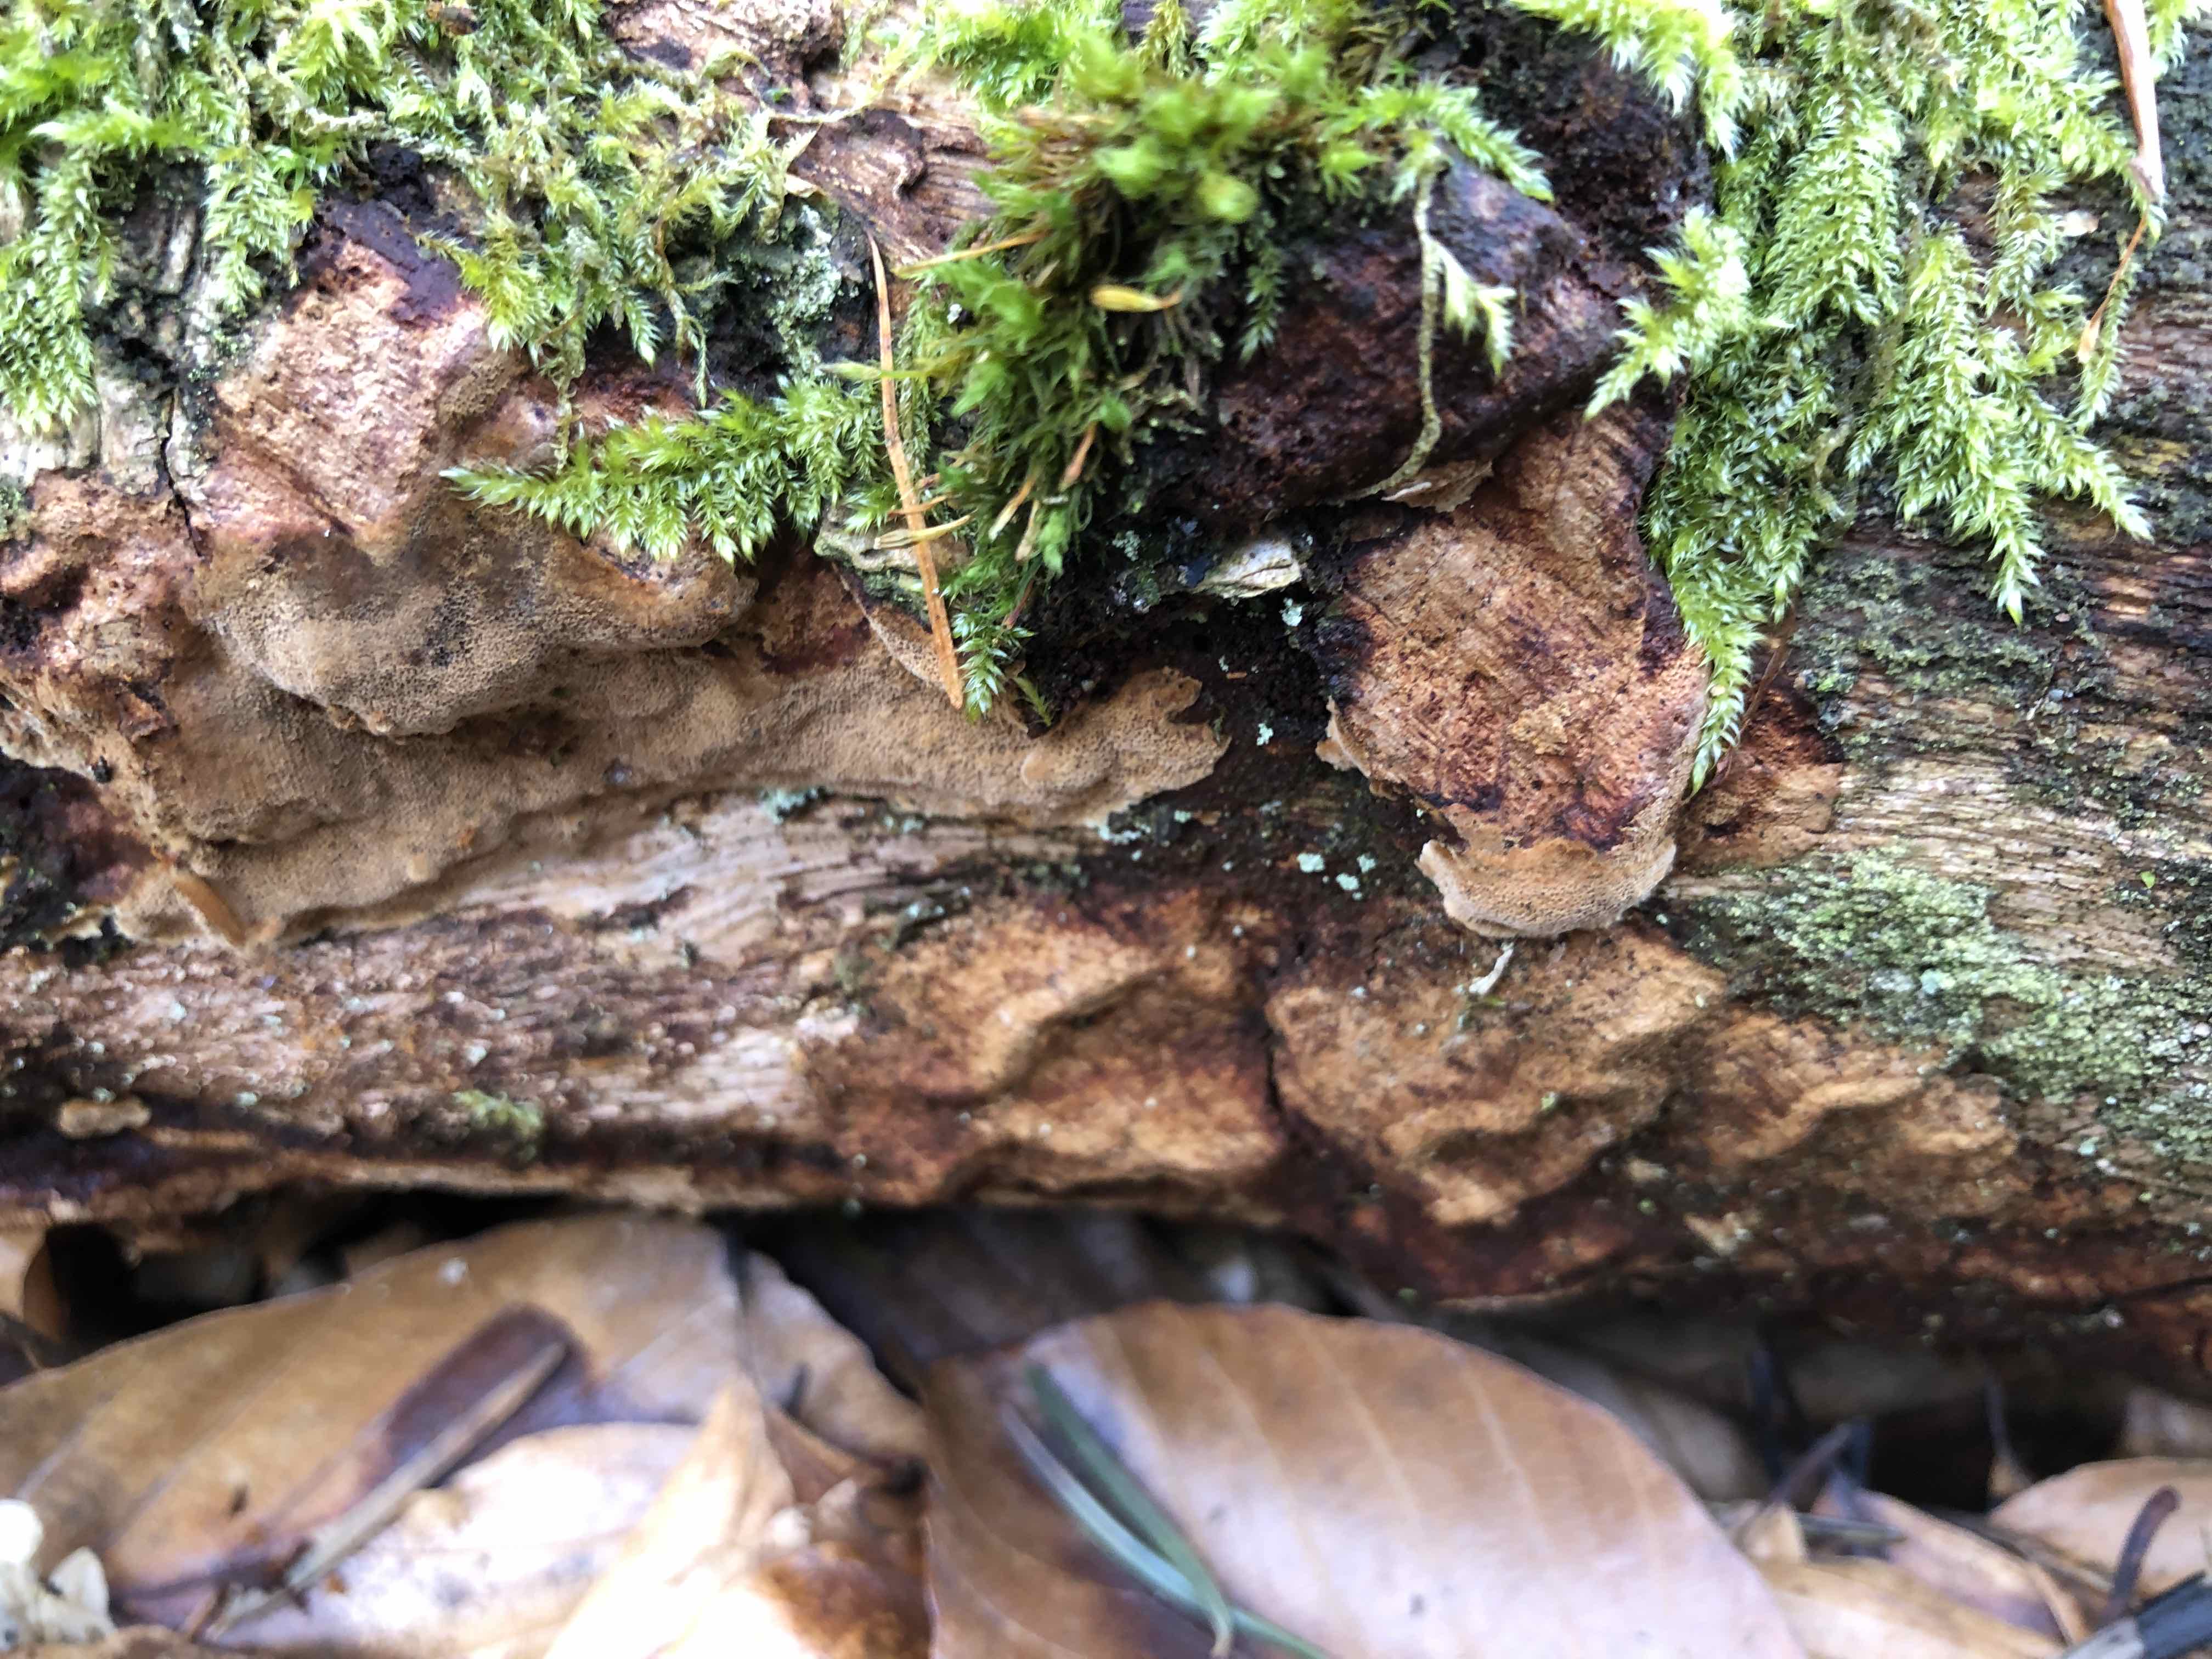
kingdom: Fungi
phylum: Basidiomycota
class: Agaricomycetes
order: Hymenochaetales
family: Hymenochaetaceae
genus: Fuscoporia
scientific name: Fuscoporia ferrea
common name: skorpe-ildporesvamp
